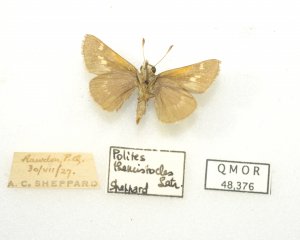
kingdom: Animalia
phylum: Arthropoda
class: Insecta
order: Lepidoptera
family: Hesperiidae
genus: Polites
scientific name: Polites themistocles
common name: Tawny-edged Skipper
